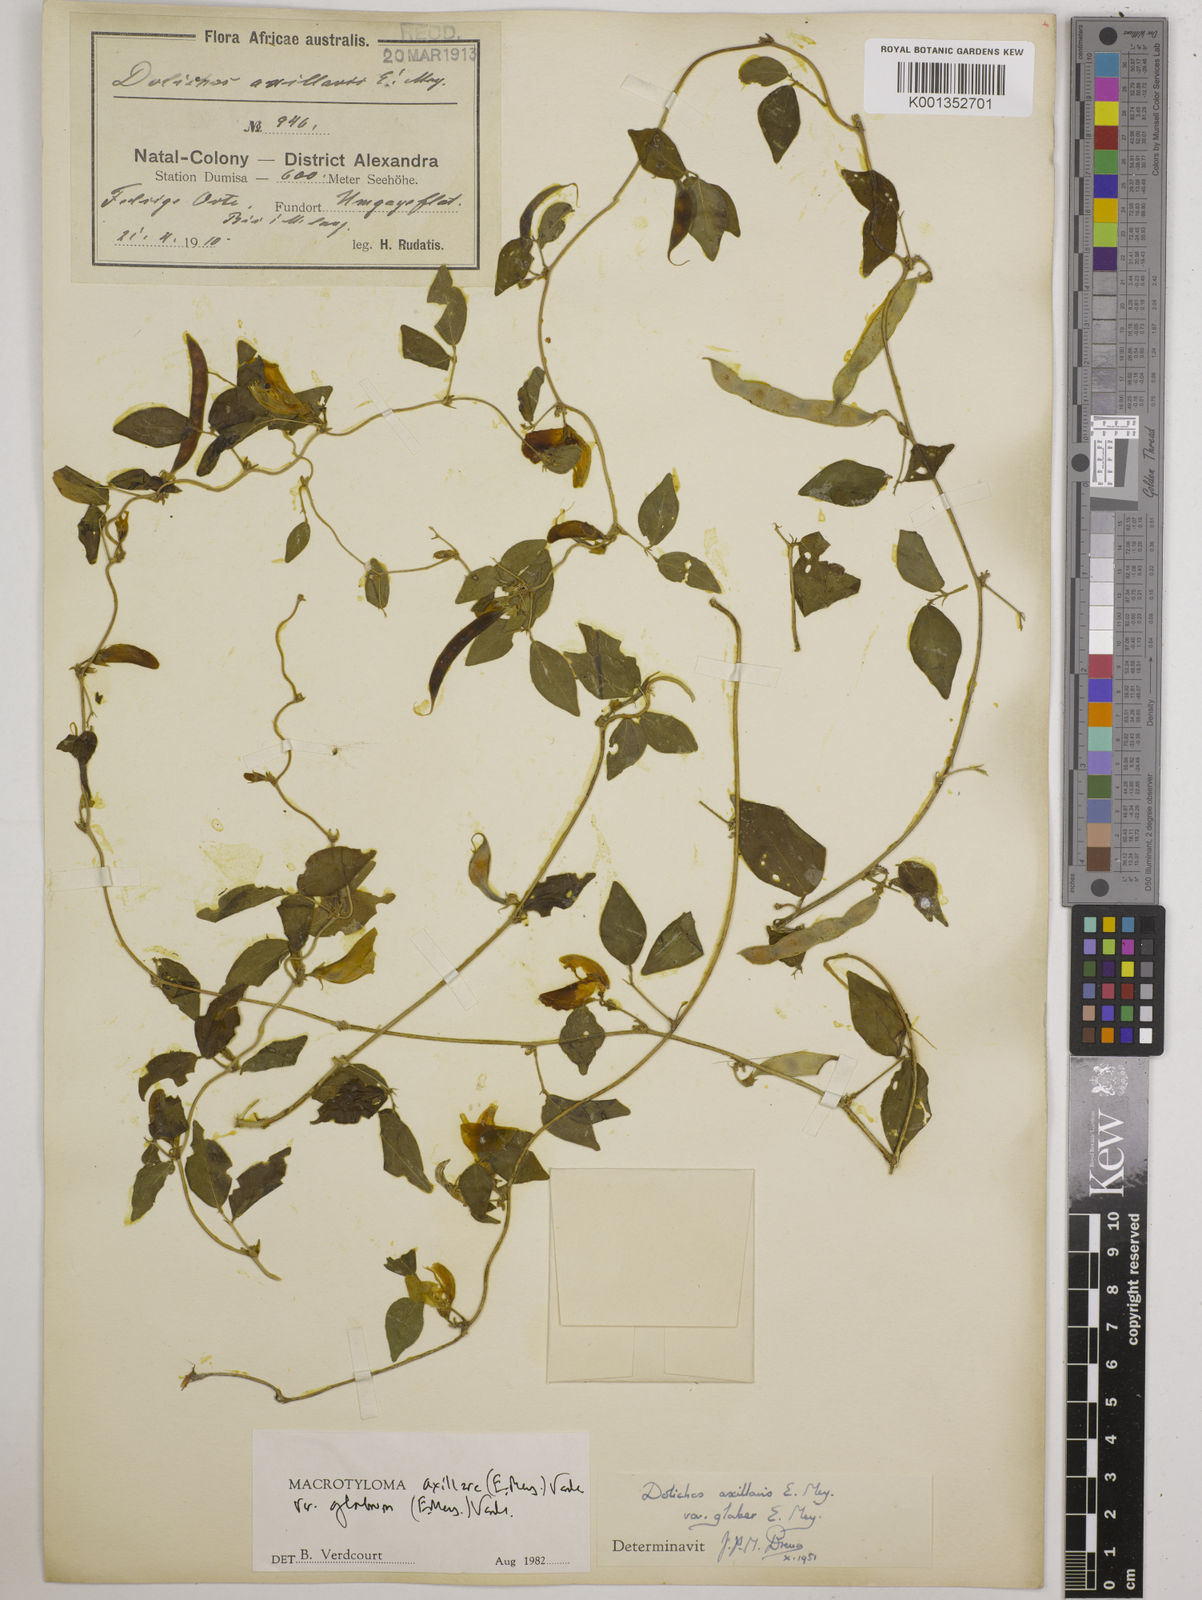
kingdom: Plantae
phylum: Tracheophyta
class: Magnoliopsida
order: Fabales
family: Fabaceae
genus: Macrotyloma
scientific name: Macrotyloma
